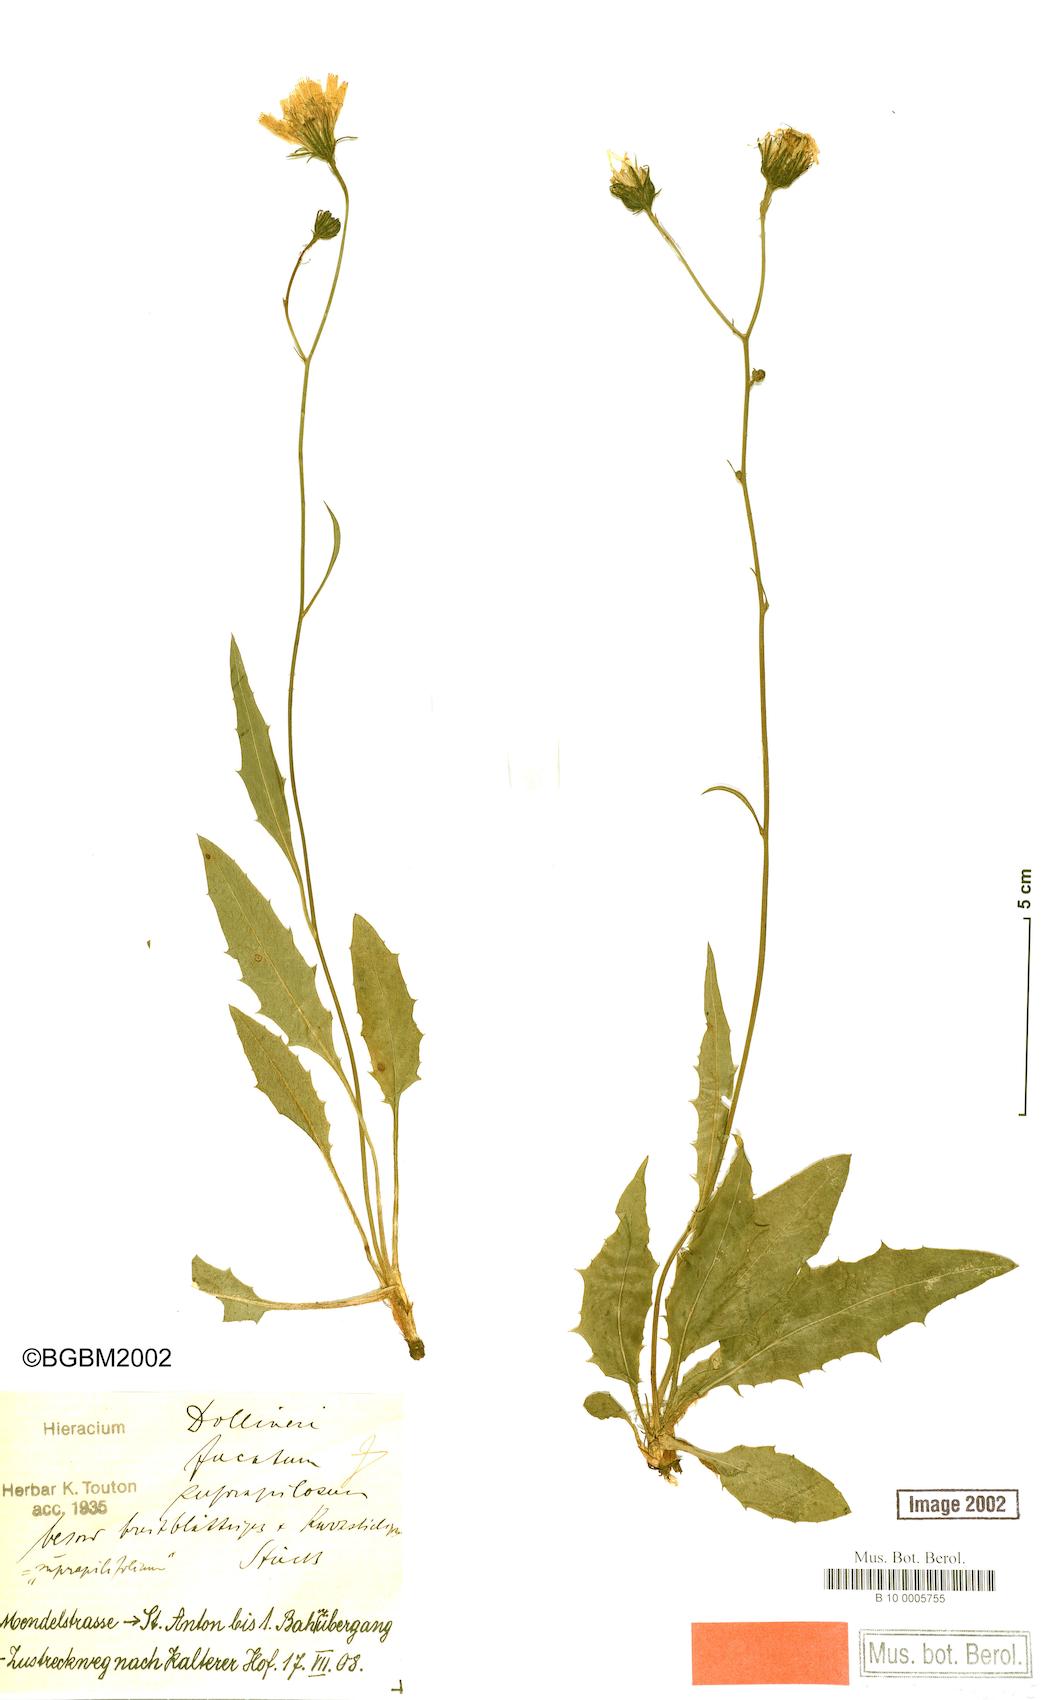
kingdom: Plantae
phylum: Tracheophyta
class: Magnoliopsida
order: Asterales
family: Asteraceae
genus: Hieracium
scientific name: Hieracium dollineri
